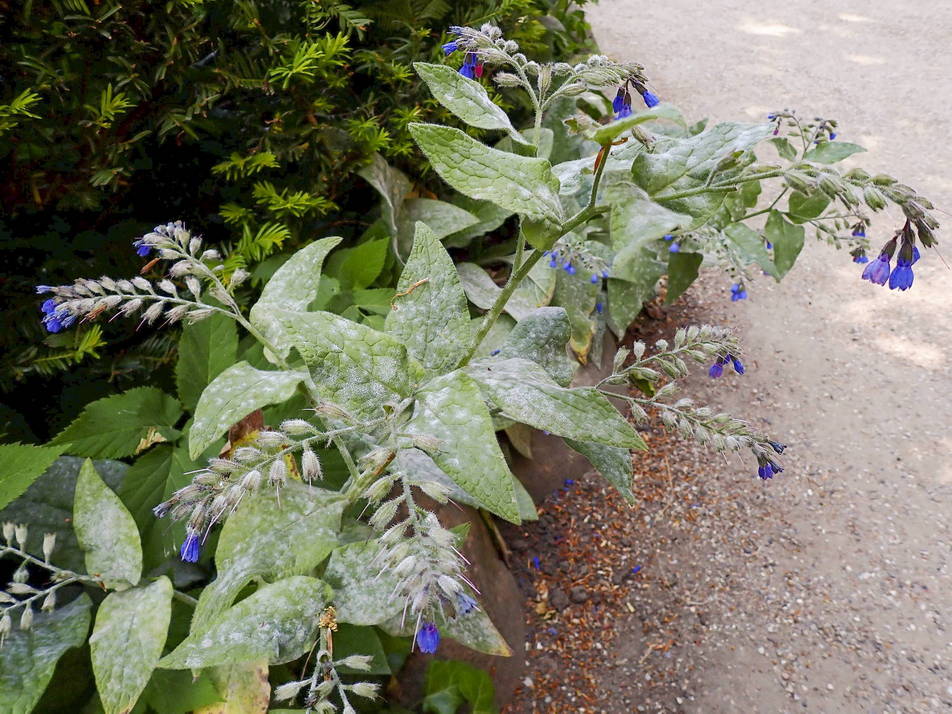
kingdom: Fungi
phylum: Ascomycota
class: Leotiomycetes
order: Helotiales
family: Erysiphaceae
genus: Golovinomyces
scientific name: Golovinomyces asperifoliorum
